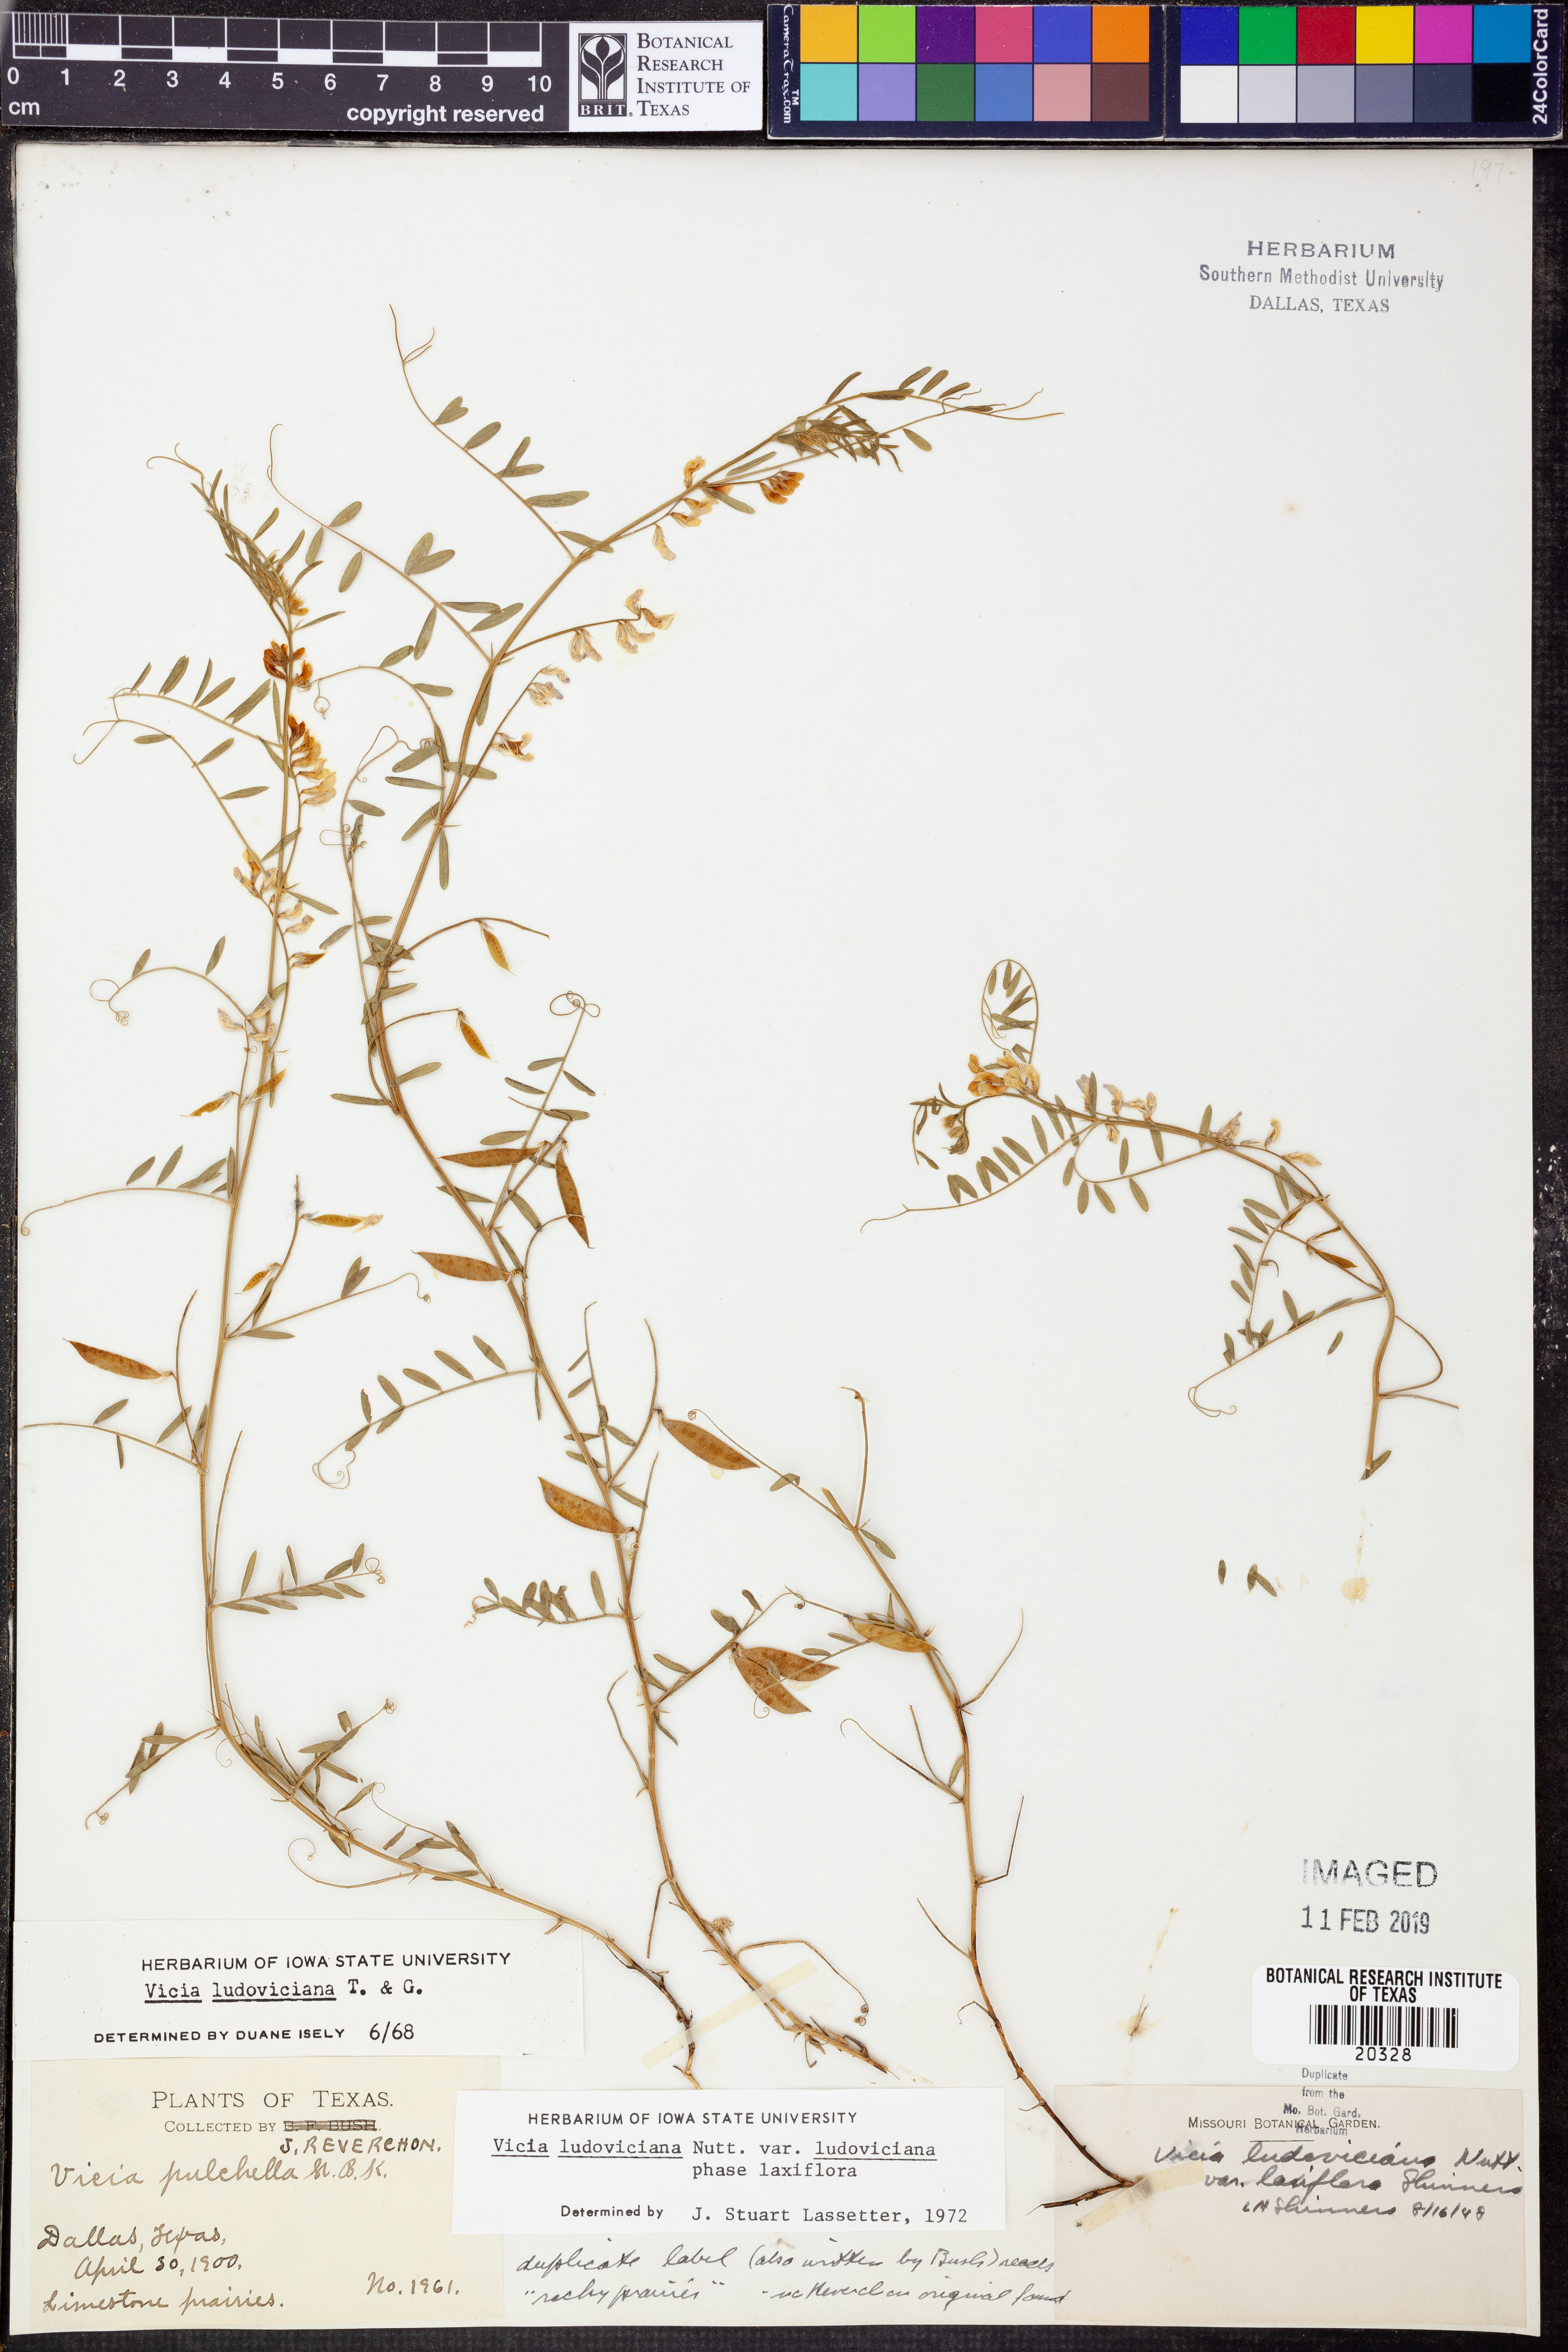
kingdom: Plantae
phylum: Tracheophyta
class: Magnoliopsida
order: Fabales
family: Fabaceae
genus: Vicia
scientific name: Vicia ludoviciana
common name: Louisiana vetch
